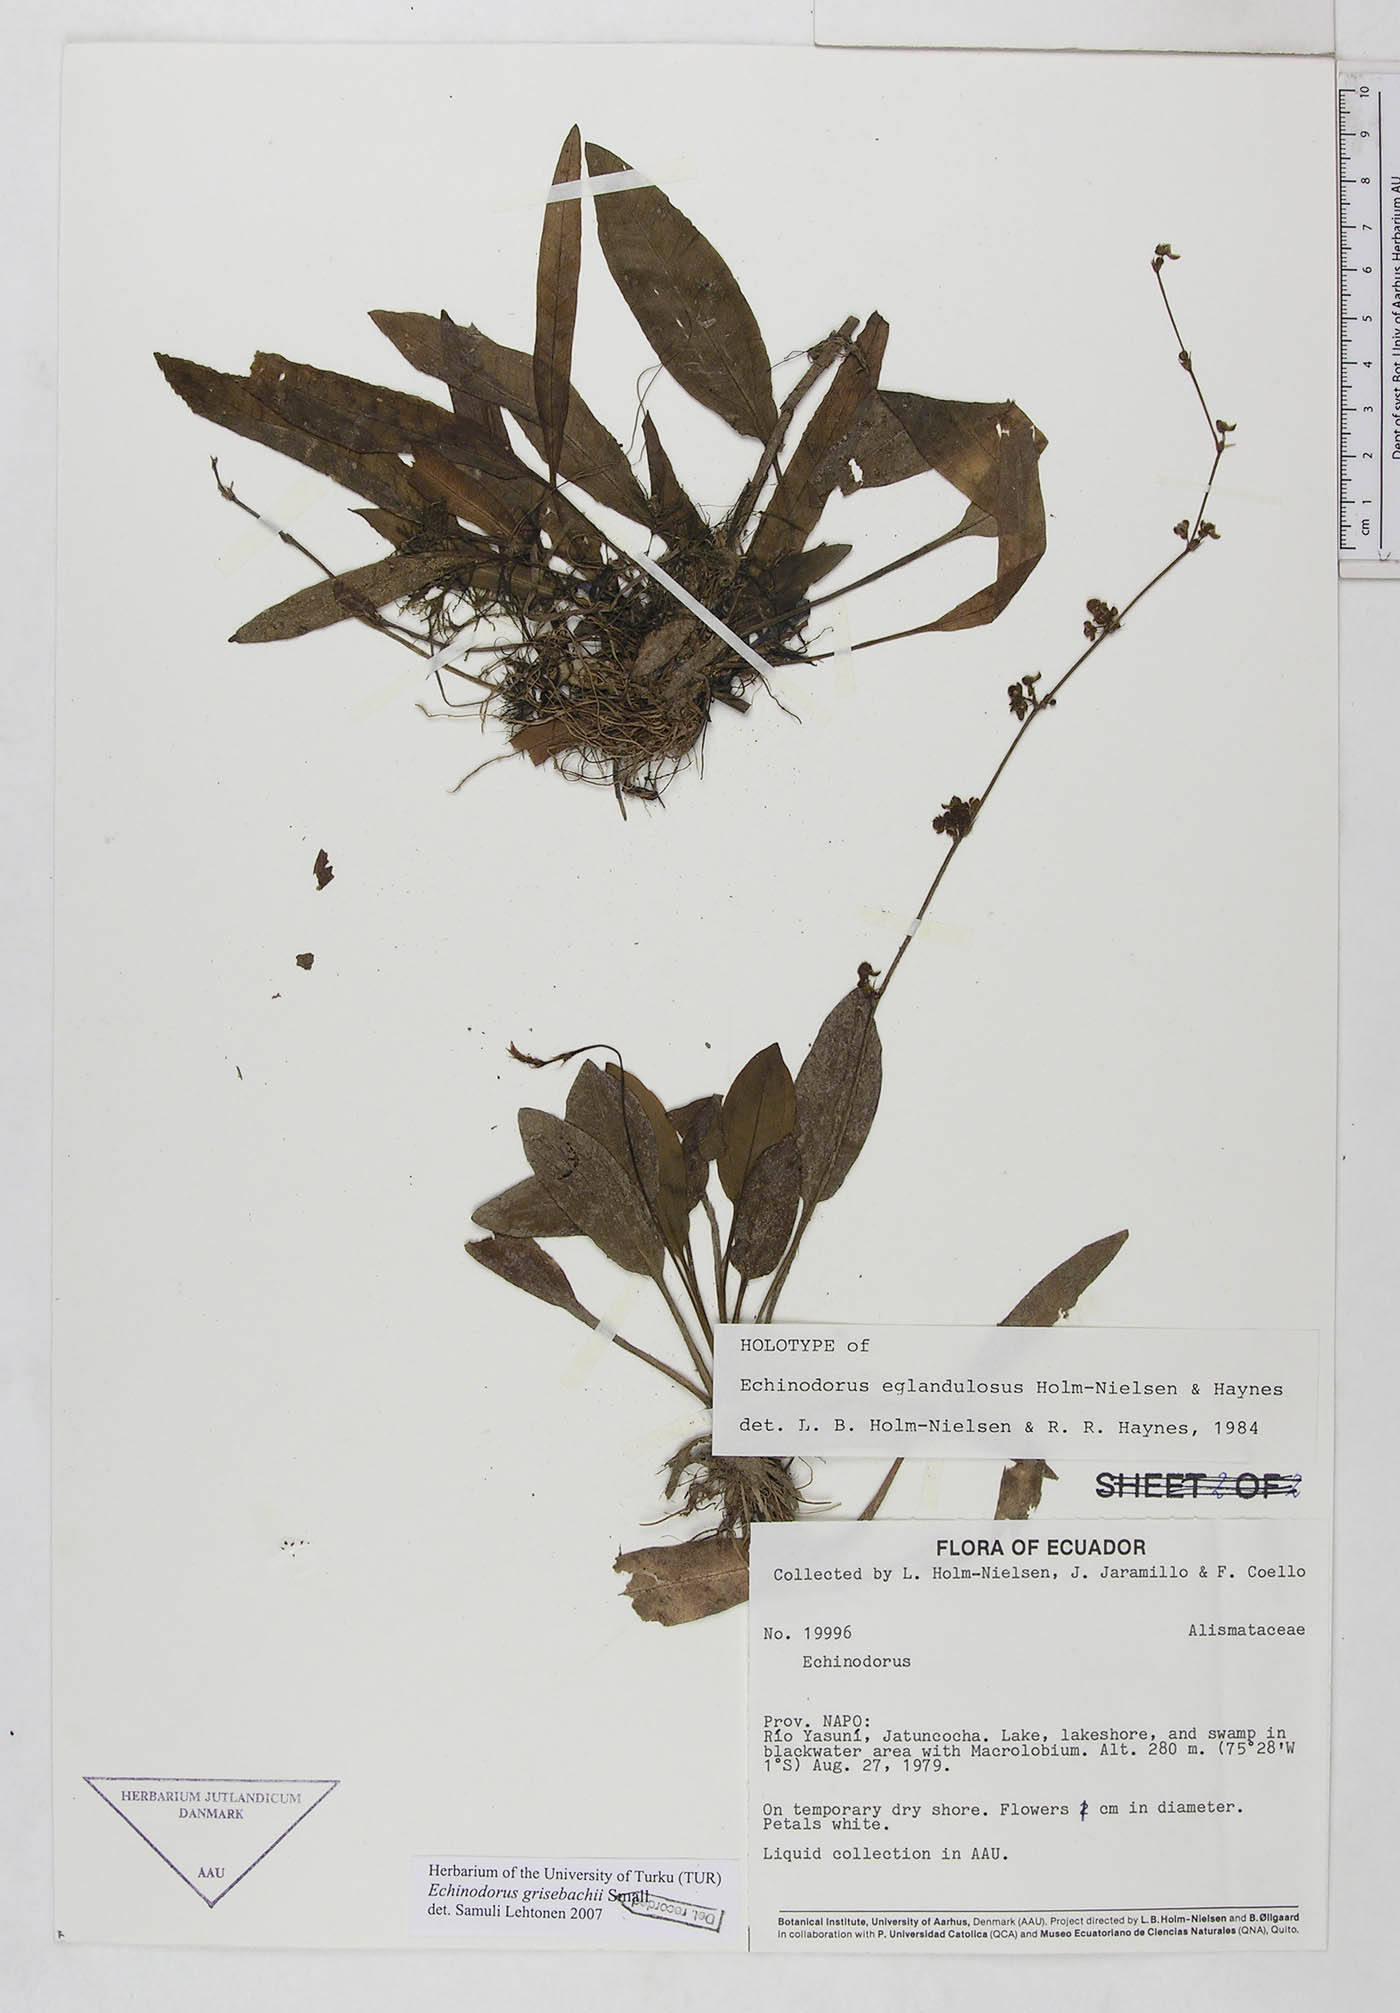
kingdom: Plantae
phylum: Tracheophyta
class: Liliopsida
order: Alismatales
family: Alismataceae
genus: Aquarius
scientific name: Aquarius grisebachii
